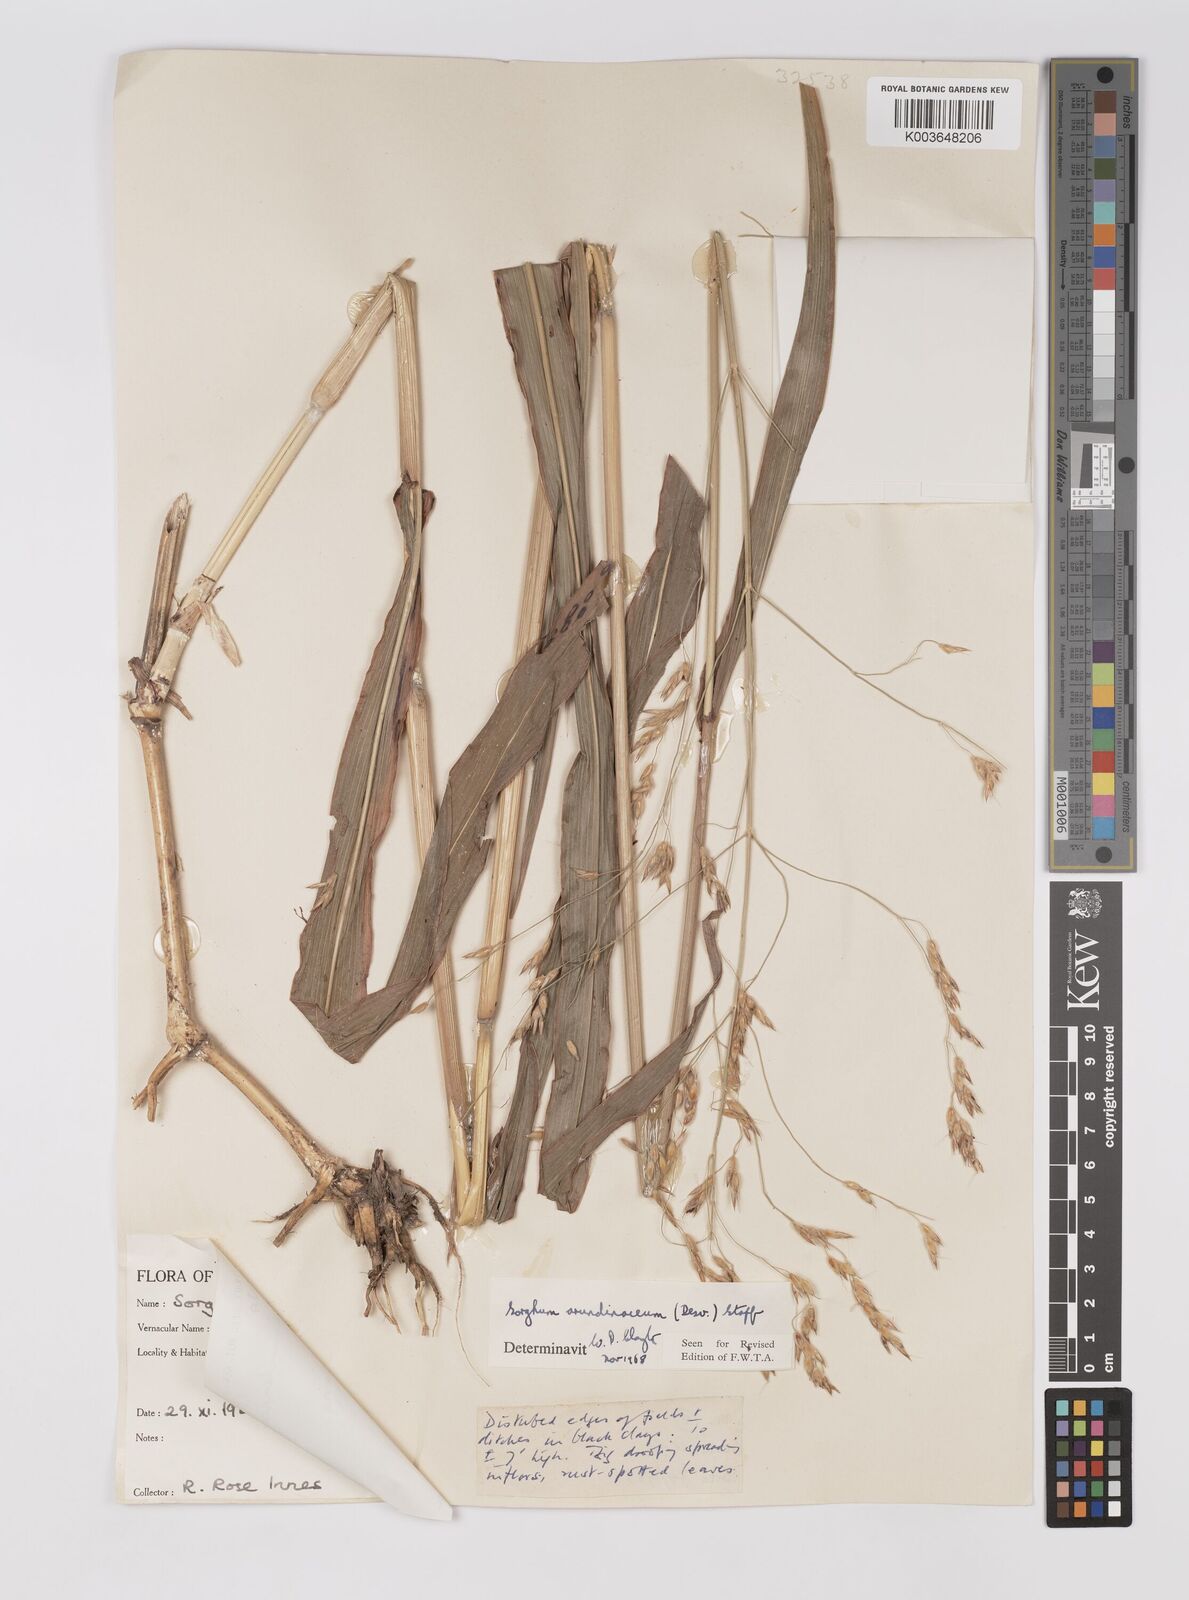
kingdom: Plantae
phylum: Tracheophyta
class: Liliopsida
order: Poales
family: Poaceae
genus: Sorghum
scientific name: Sorghum arundinaceum
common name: Sorghum
